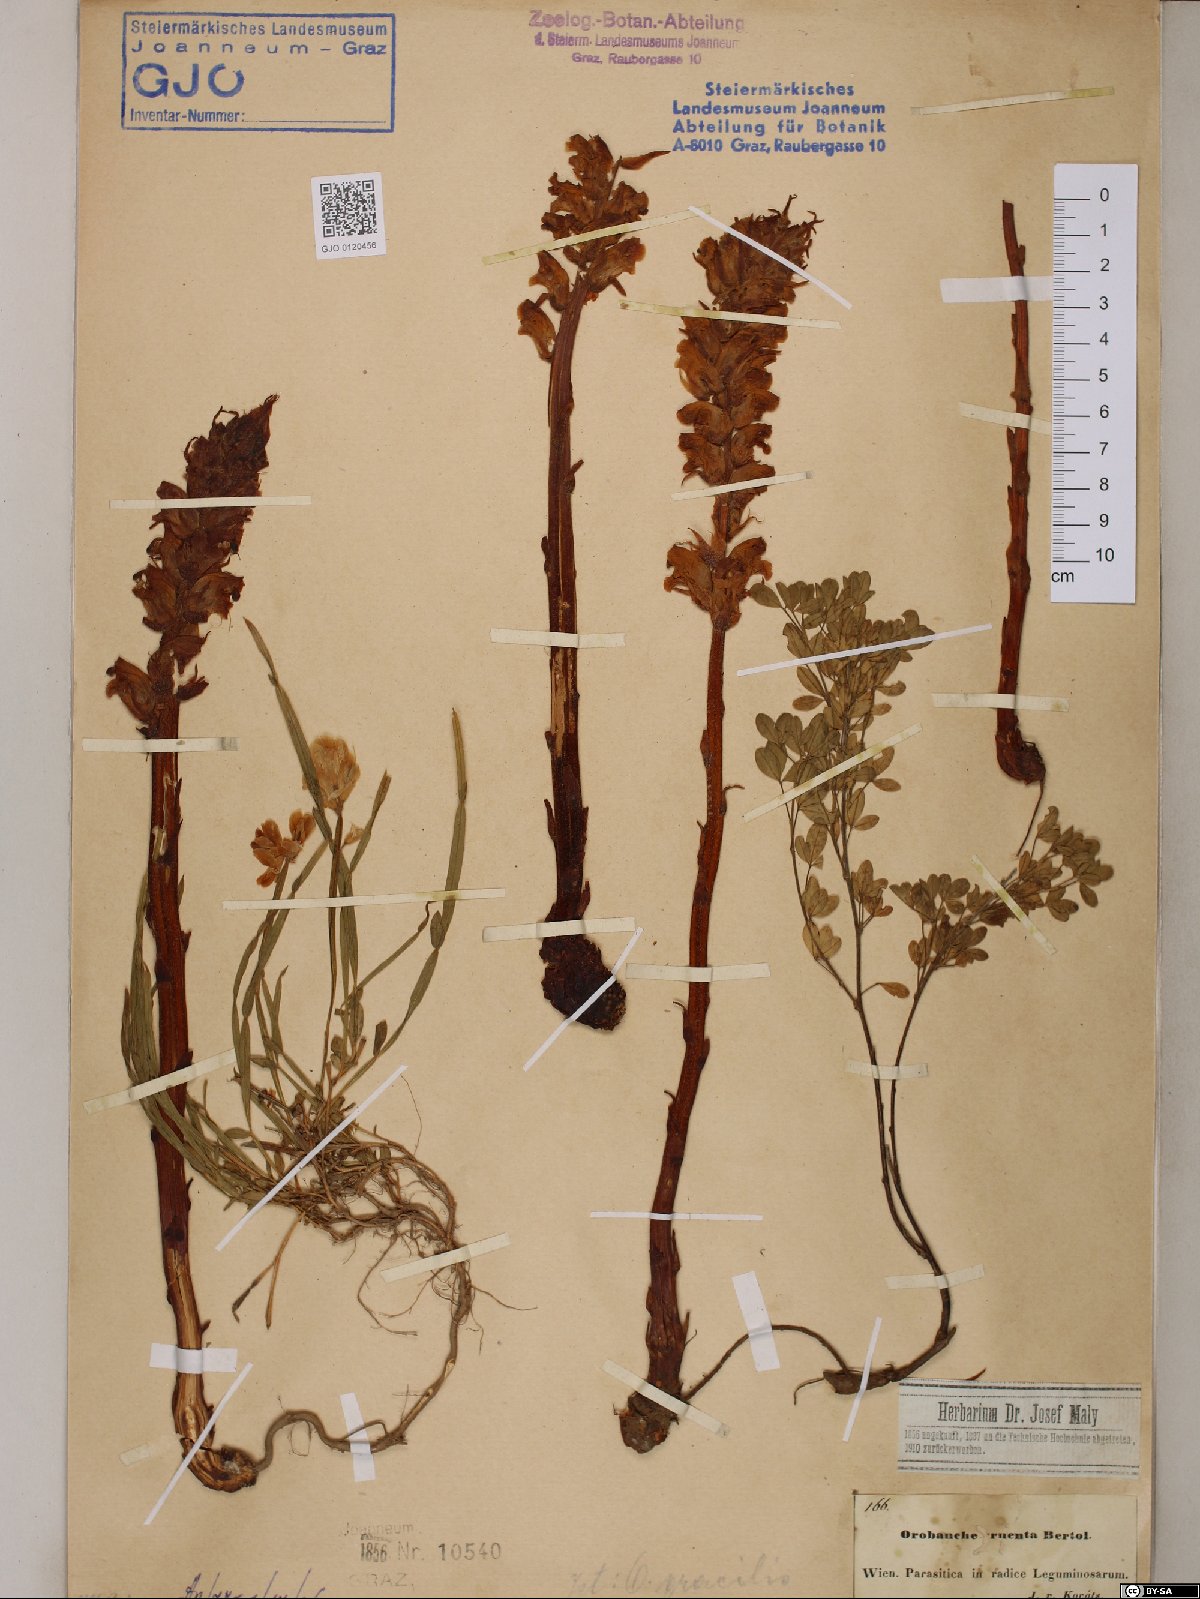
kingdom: Plantae
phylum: Tracheophyta
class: Magnoliopsida
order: Lamiales
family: Orobanchaceae
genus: Orobanche
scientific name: Orobanche gracilis
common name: Slender broomrape
